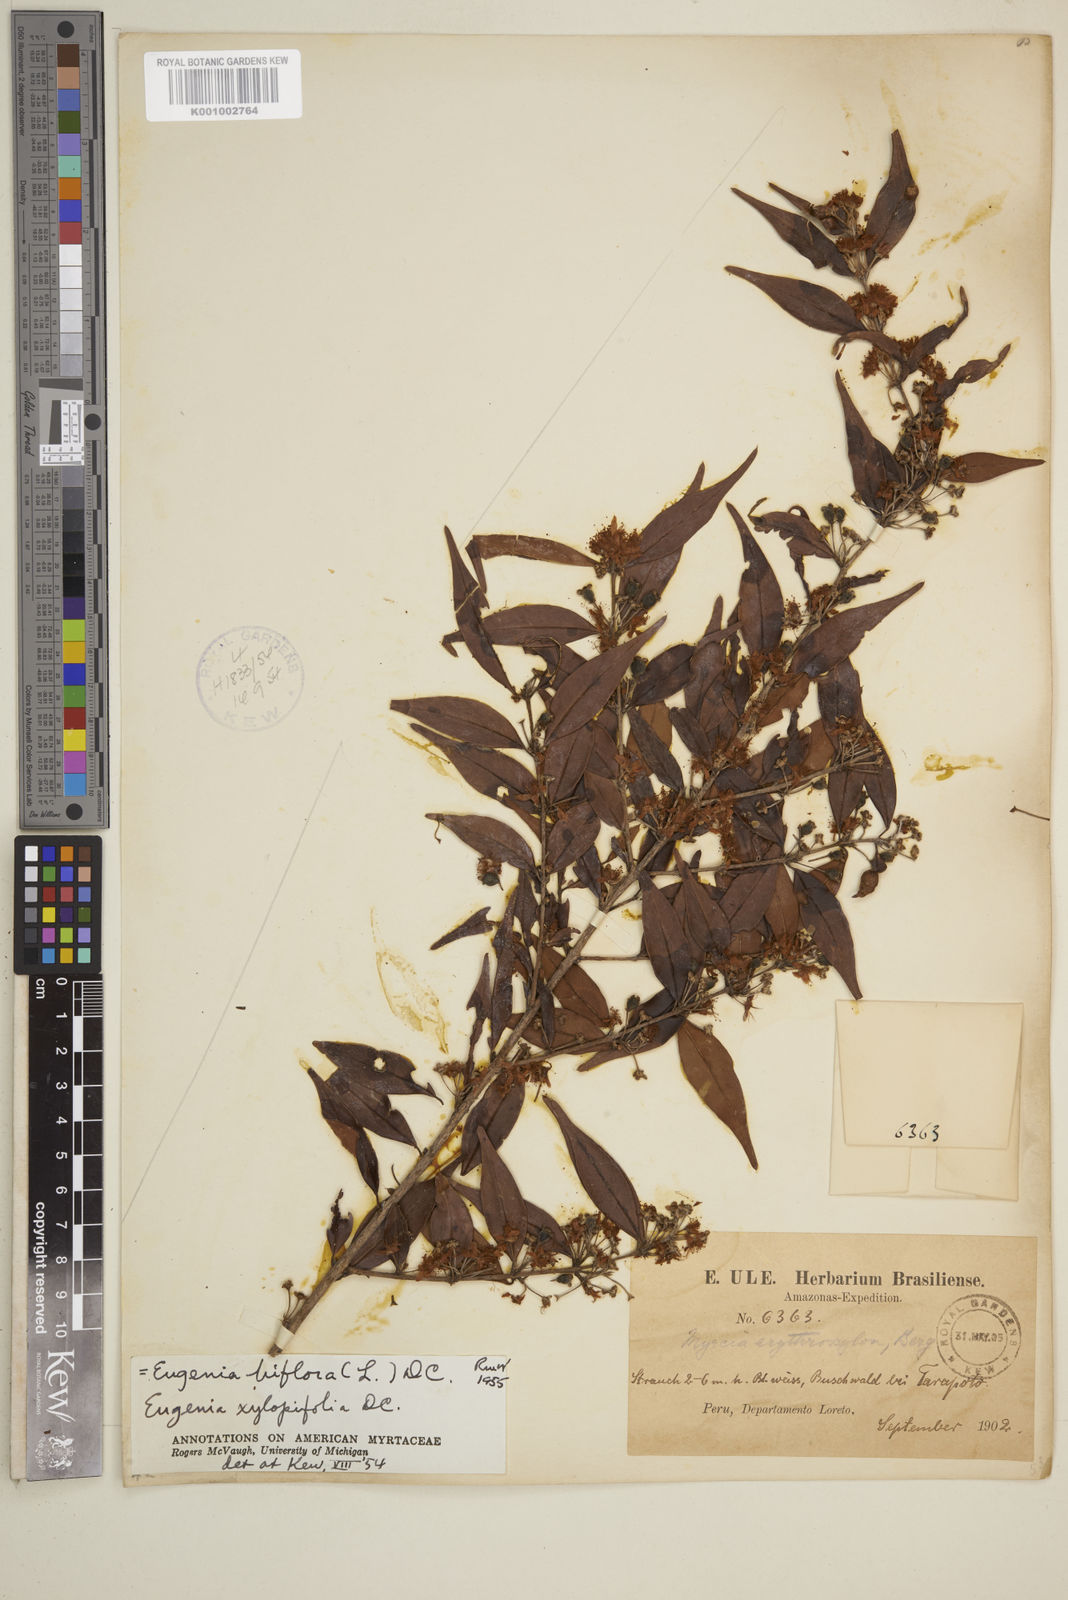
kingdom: Plantae
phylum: Tracheophyta
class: Magnoliopsida
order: Myrtales
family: Myrtaceae
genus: Eugenia
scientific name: Eugenia biflora
